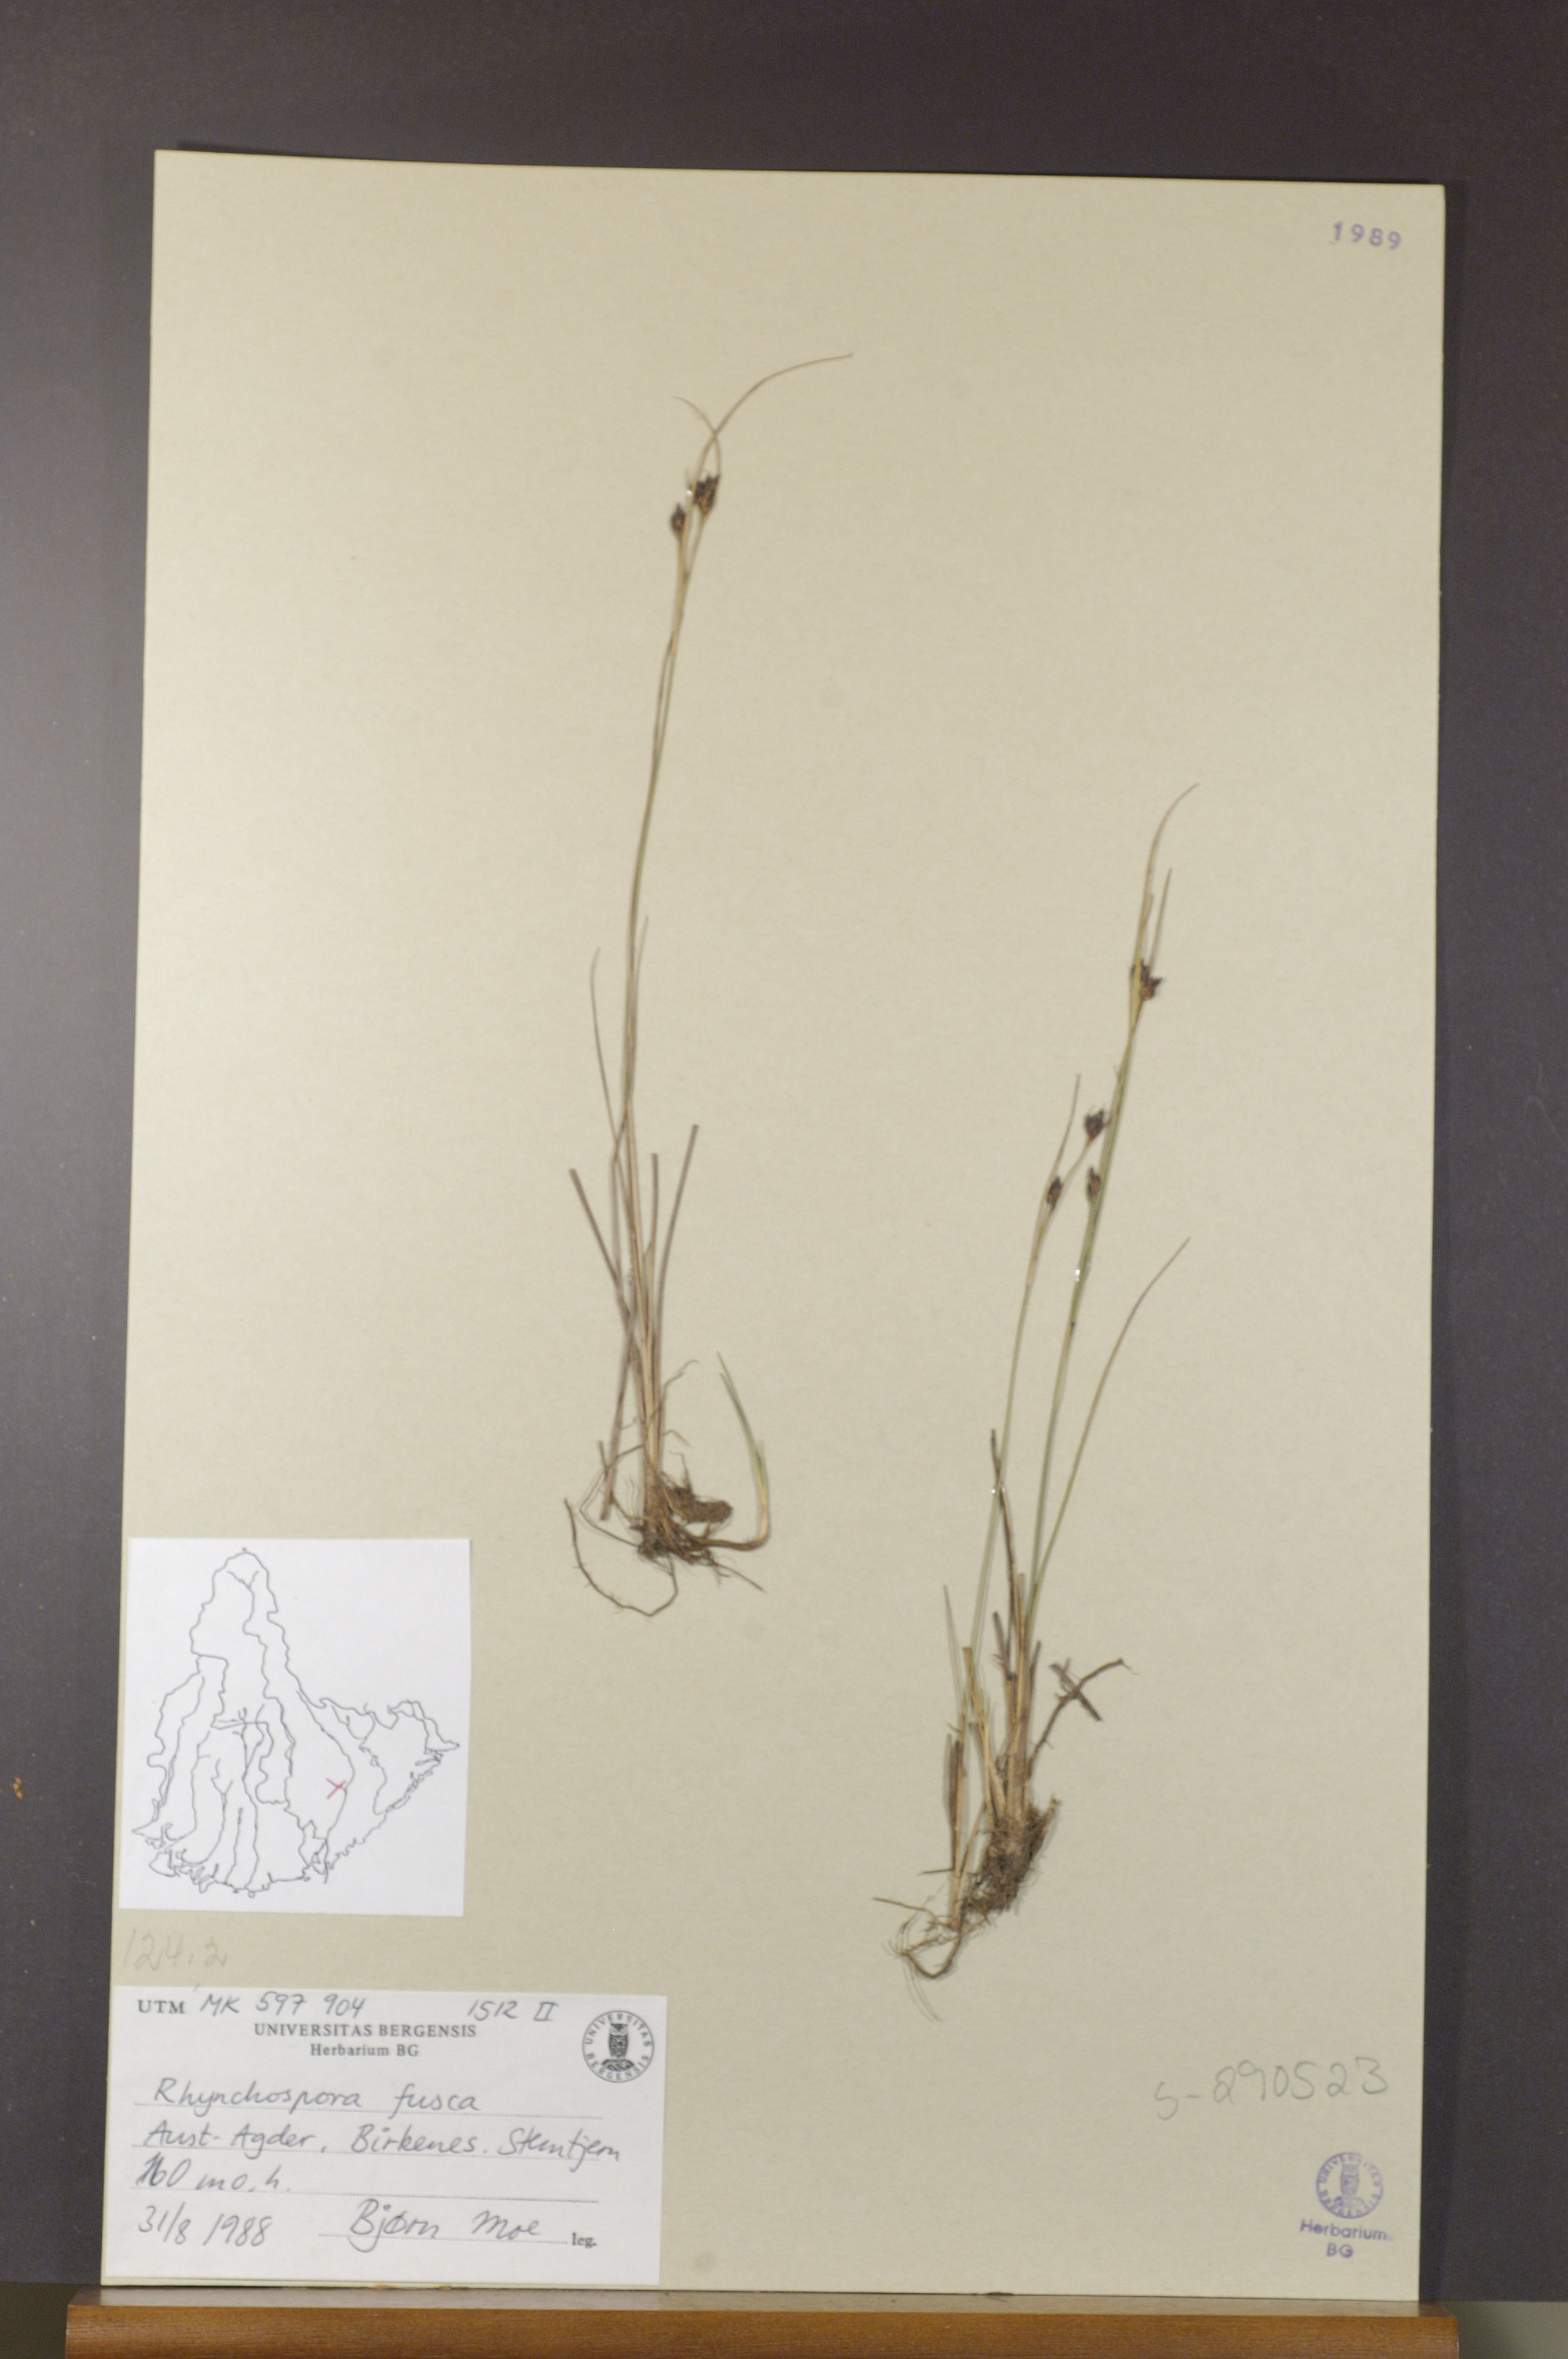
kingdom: Plantae
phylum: Tracheophyta
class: Liliopsida
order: Poales
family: Cyperaceae
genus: Rhynchospora
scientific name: Rhynchospora fusca
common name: Brown beak-sedge
